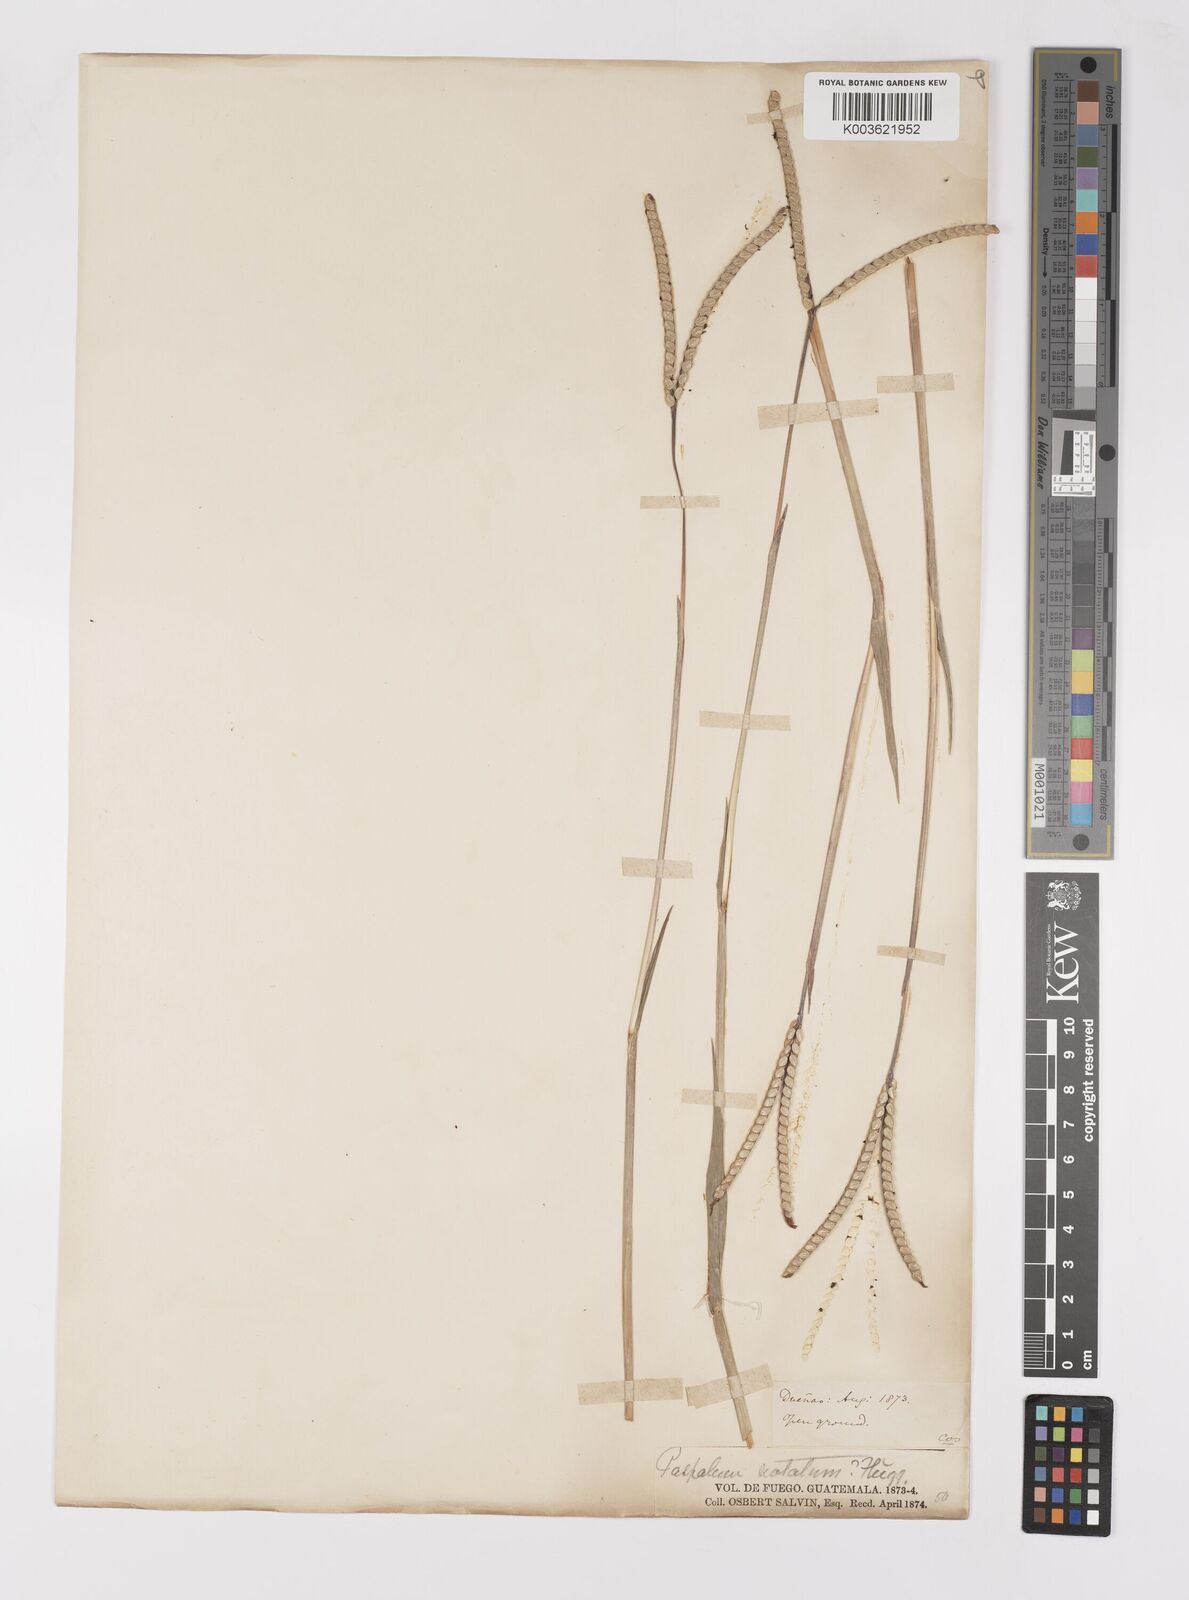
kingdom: Plantae
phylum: Tracheophyta
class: Liliopsida
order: Poales
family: Poaceae
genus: Paspalum
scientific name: Paspalum notatum
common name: Bahiagrass
